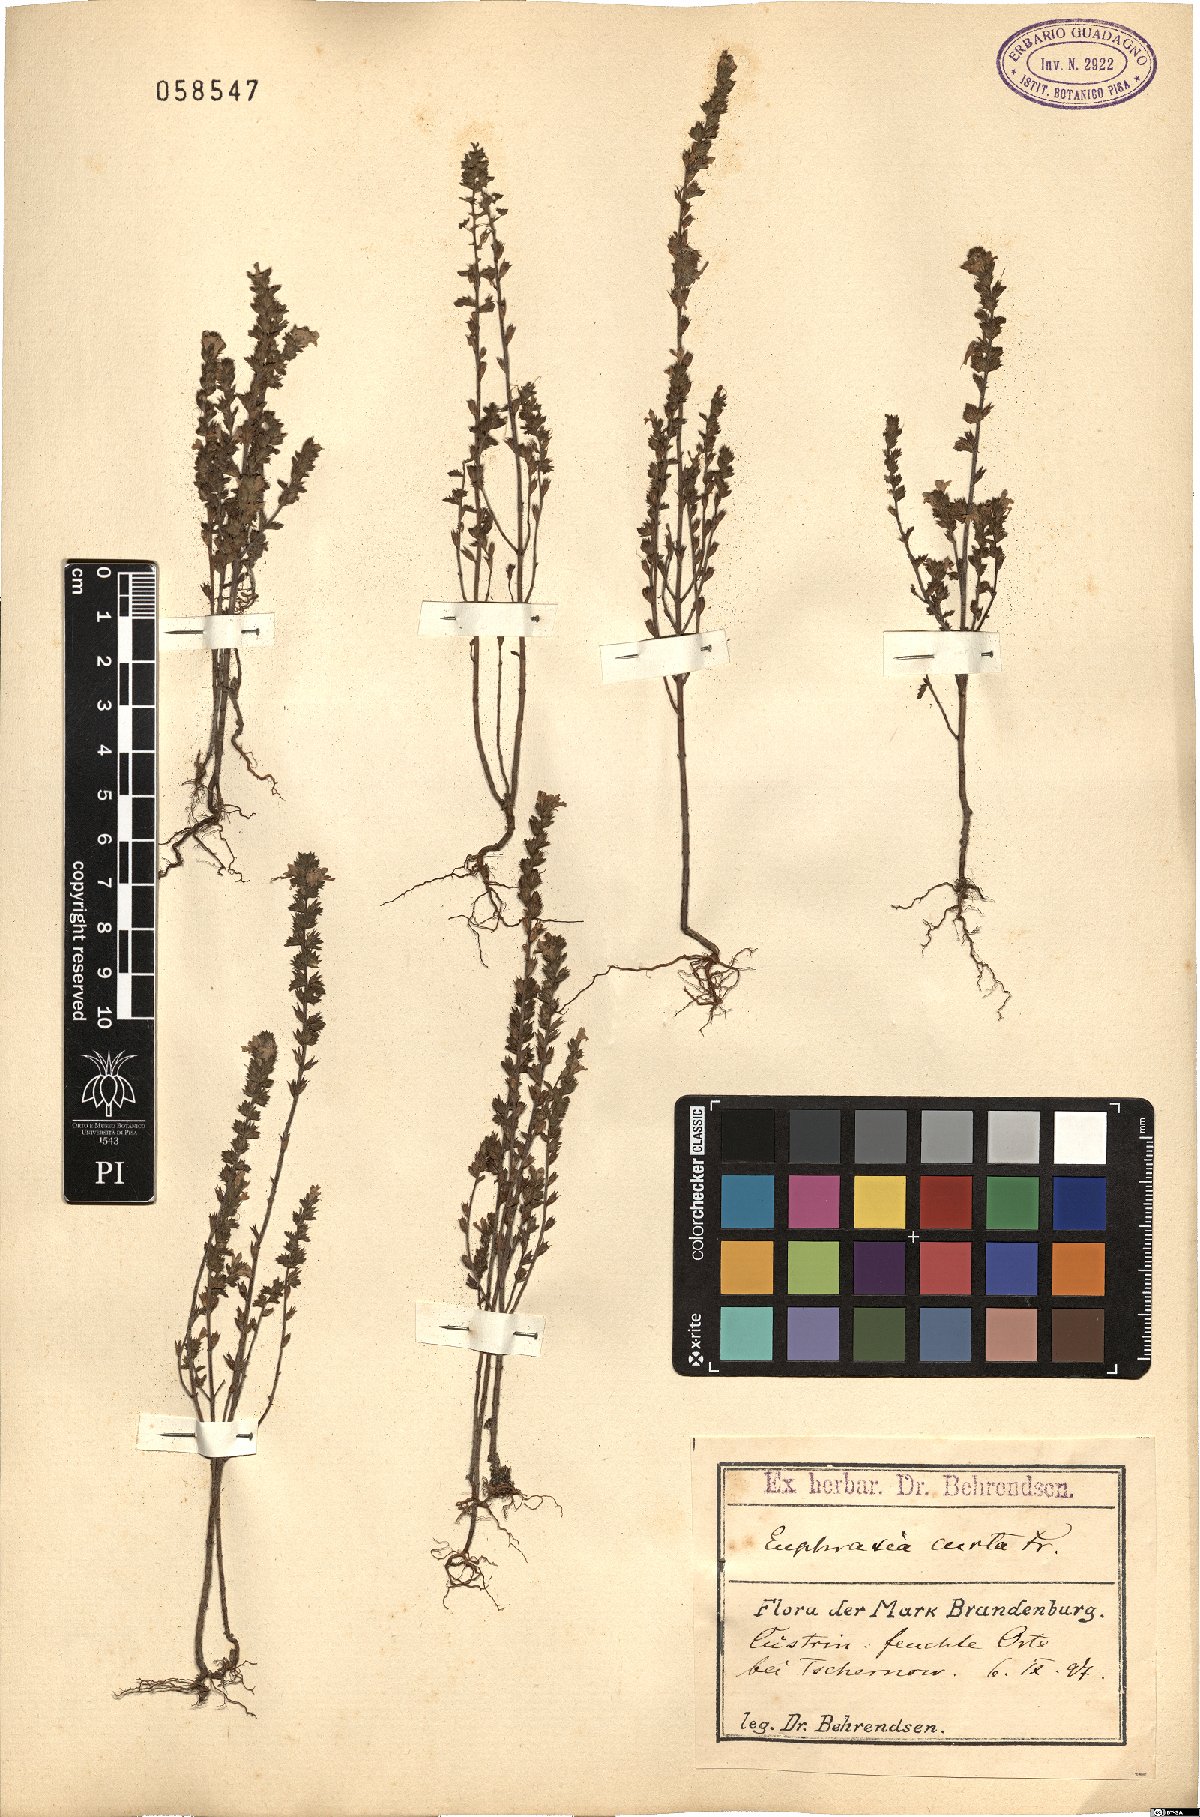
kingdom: Plantae
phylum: Tracheophyta
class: Magnoliopsida
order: Lamiales
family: Orobanchaceae
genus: Euphrasia
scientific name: Euphrasia micrantha
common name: Northern eyebright
